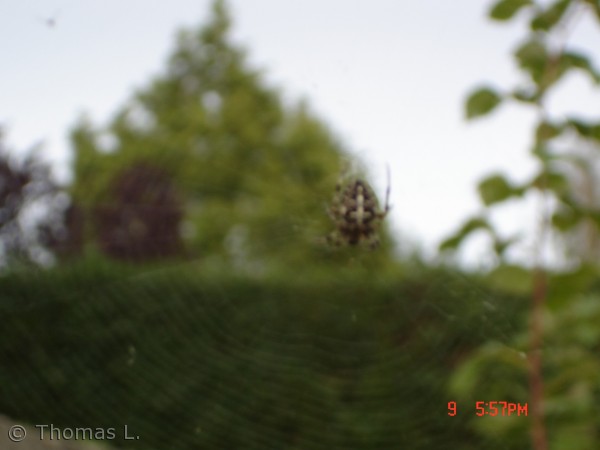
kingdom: Animalia
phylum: Arthropoda
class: Arachnida
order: Araneae
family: Araneidae
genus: Araneus
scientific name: Araneus diadematus
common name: Korsedderkop
